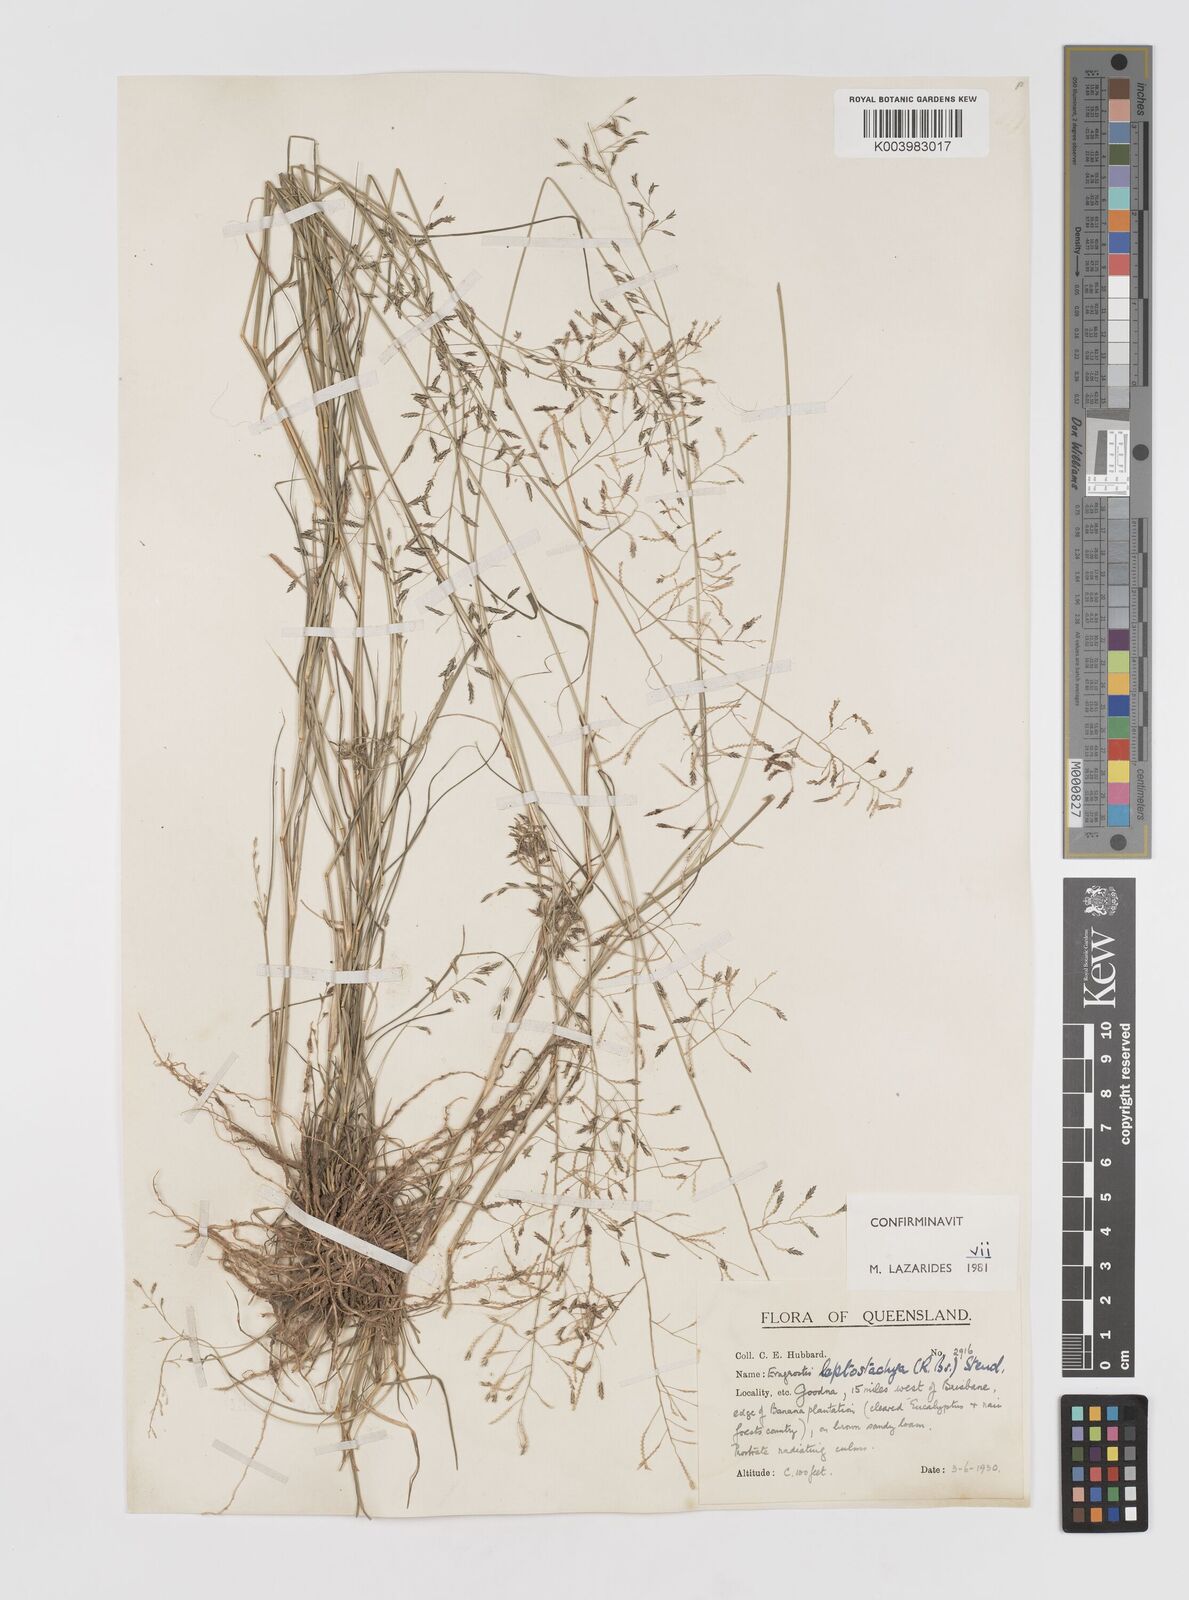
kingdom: Plantae
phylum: Tracheophyta
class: Liliopsida
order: Poales
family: Poaceae
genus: Eragrostis
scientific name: Eragrostis leptostachya
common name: Australian lovegrass
